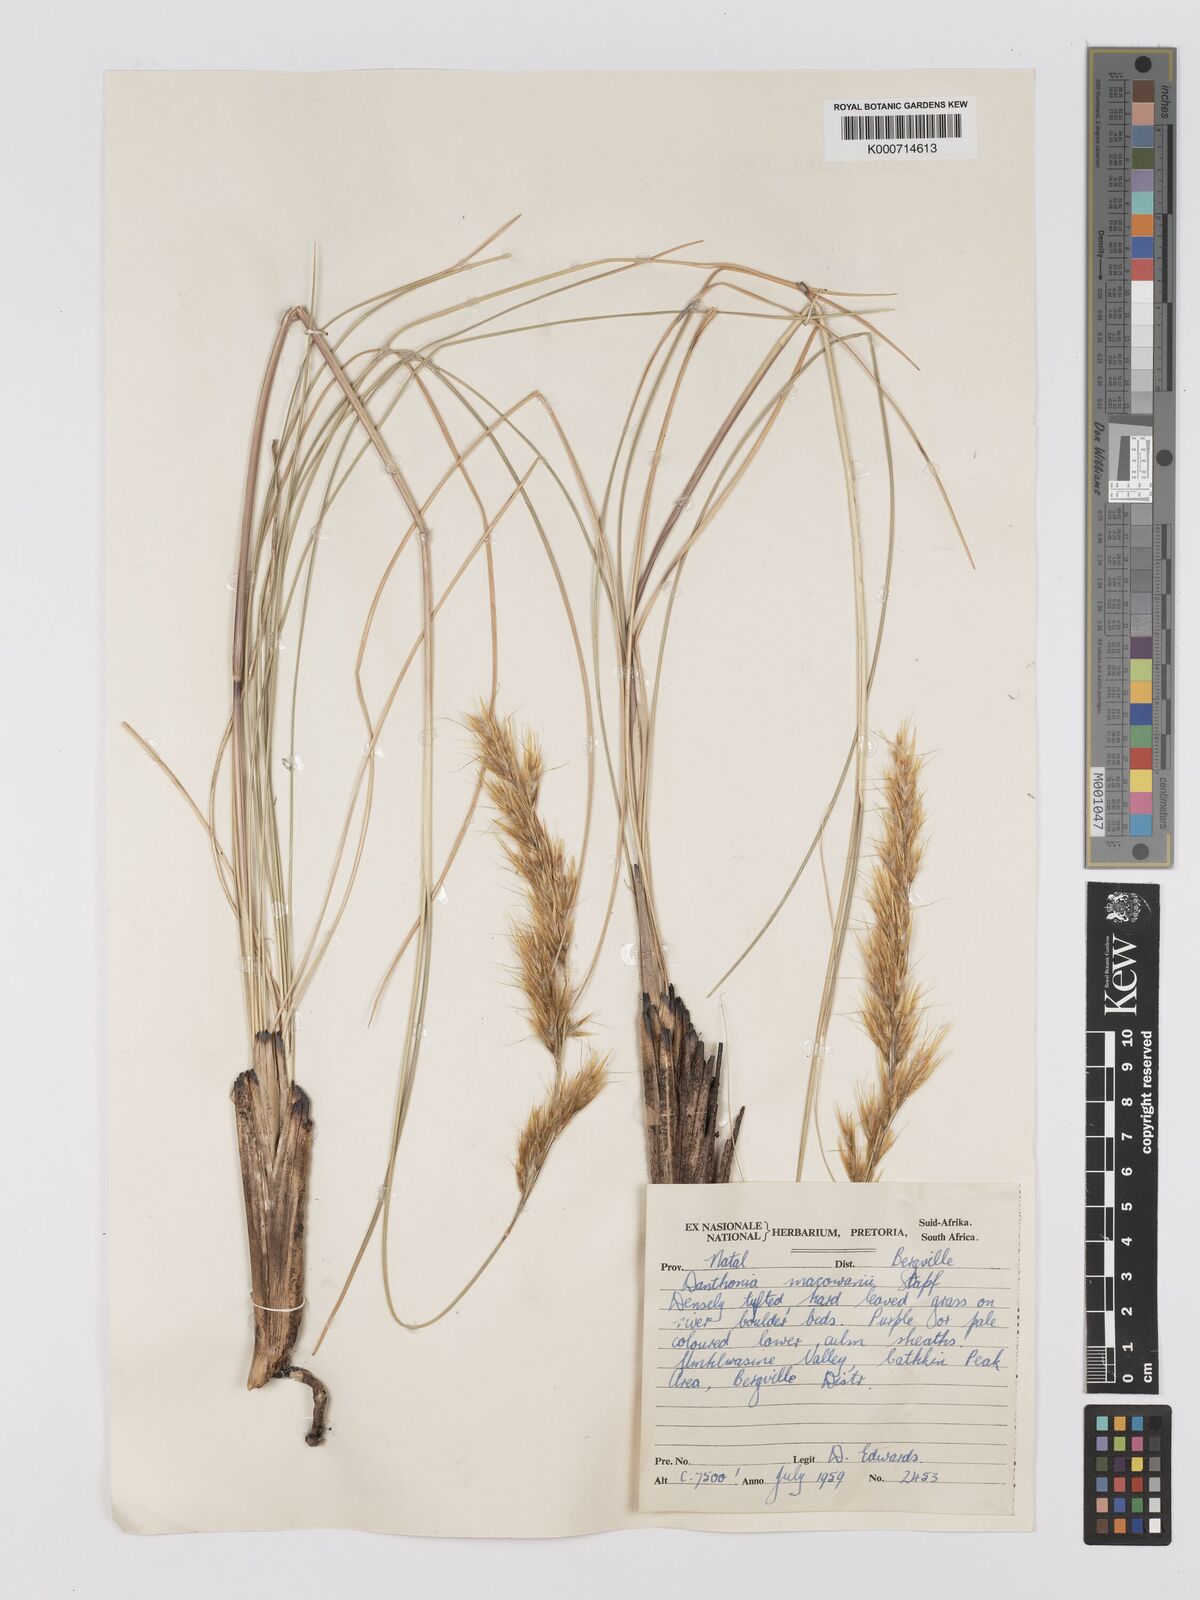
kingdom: Plantae
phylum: Tracheophyta
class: Liliopsida
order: Poales
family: Poaceae
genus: Rytidosperma
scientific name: Rytidosperma
